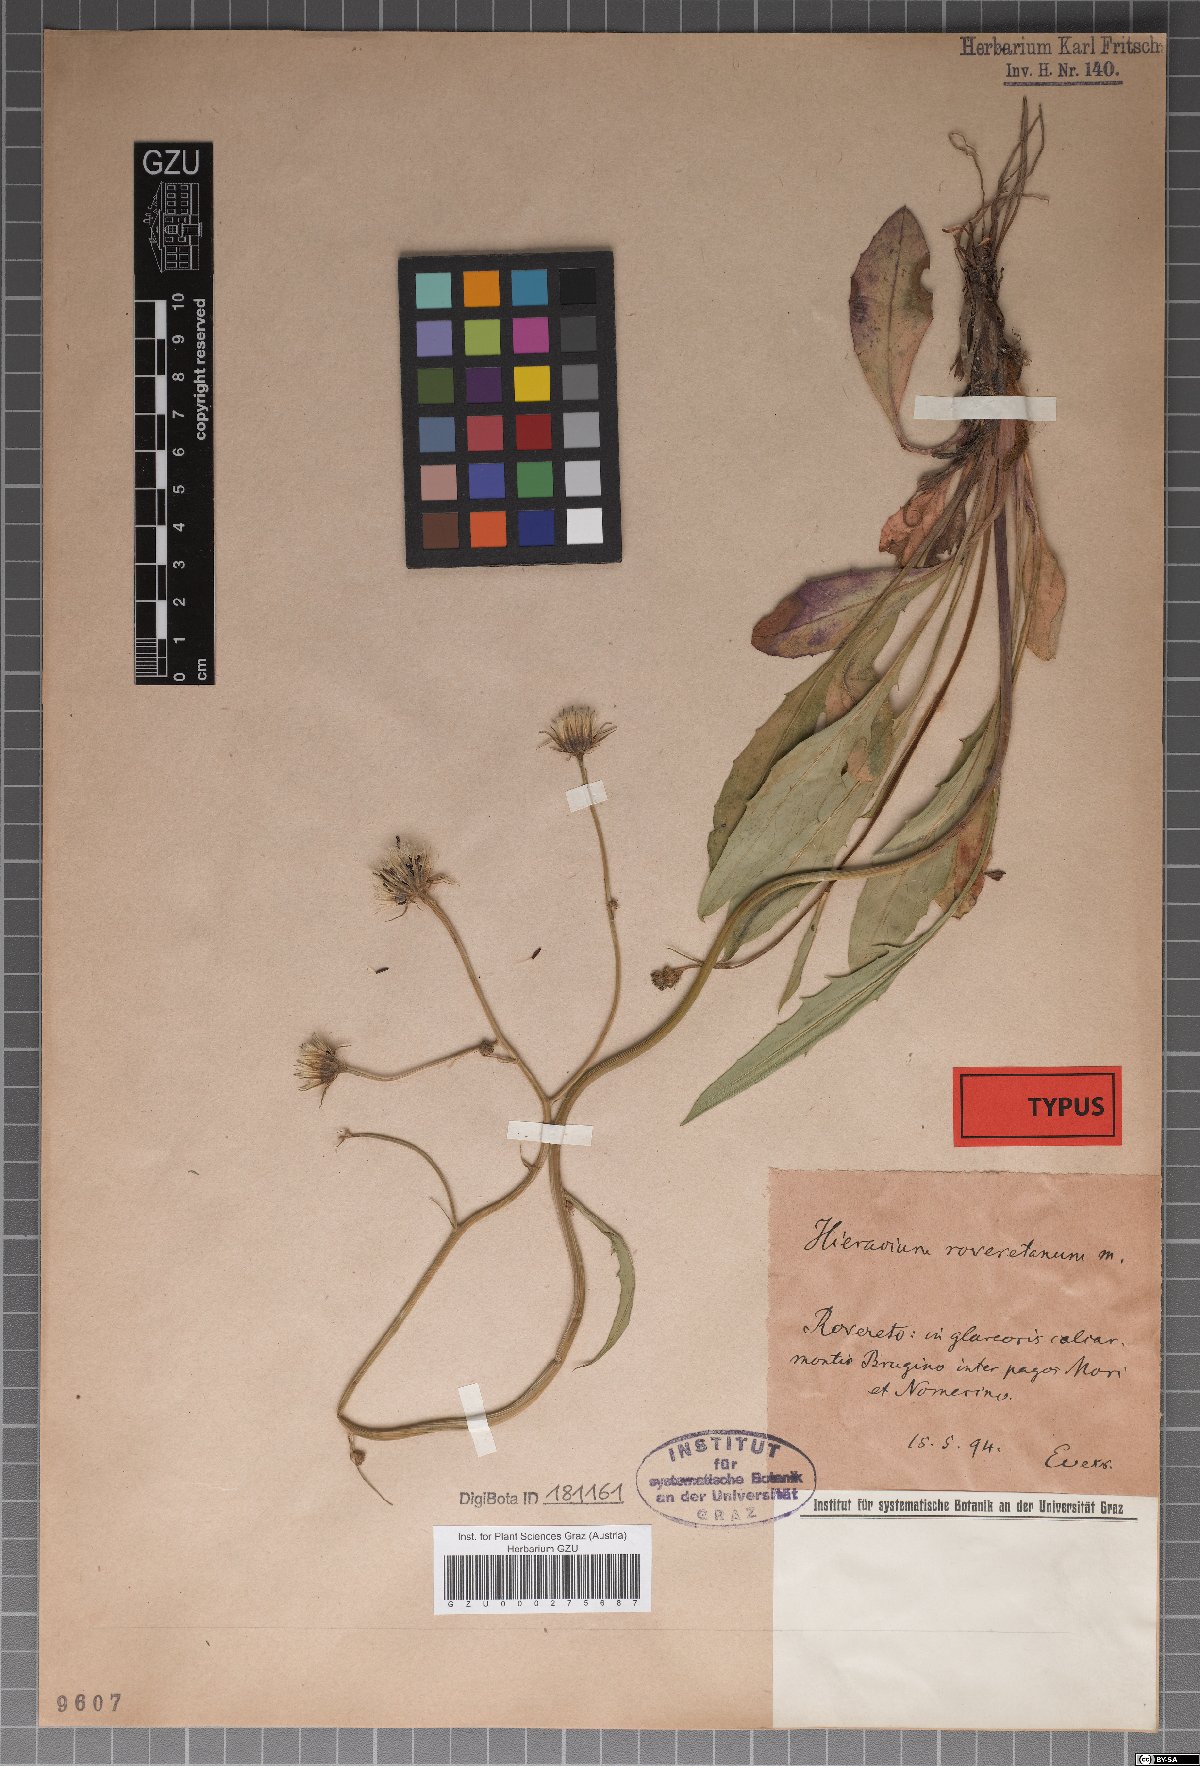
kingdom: Plantae
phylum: Tracheophyta
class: Magnoliopsida
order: Asterales
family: Asteraceae
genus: Hieracium
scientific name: Hieracium dollineri
